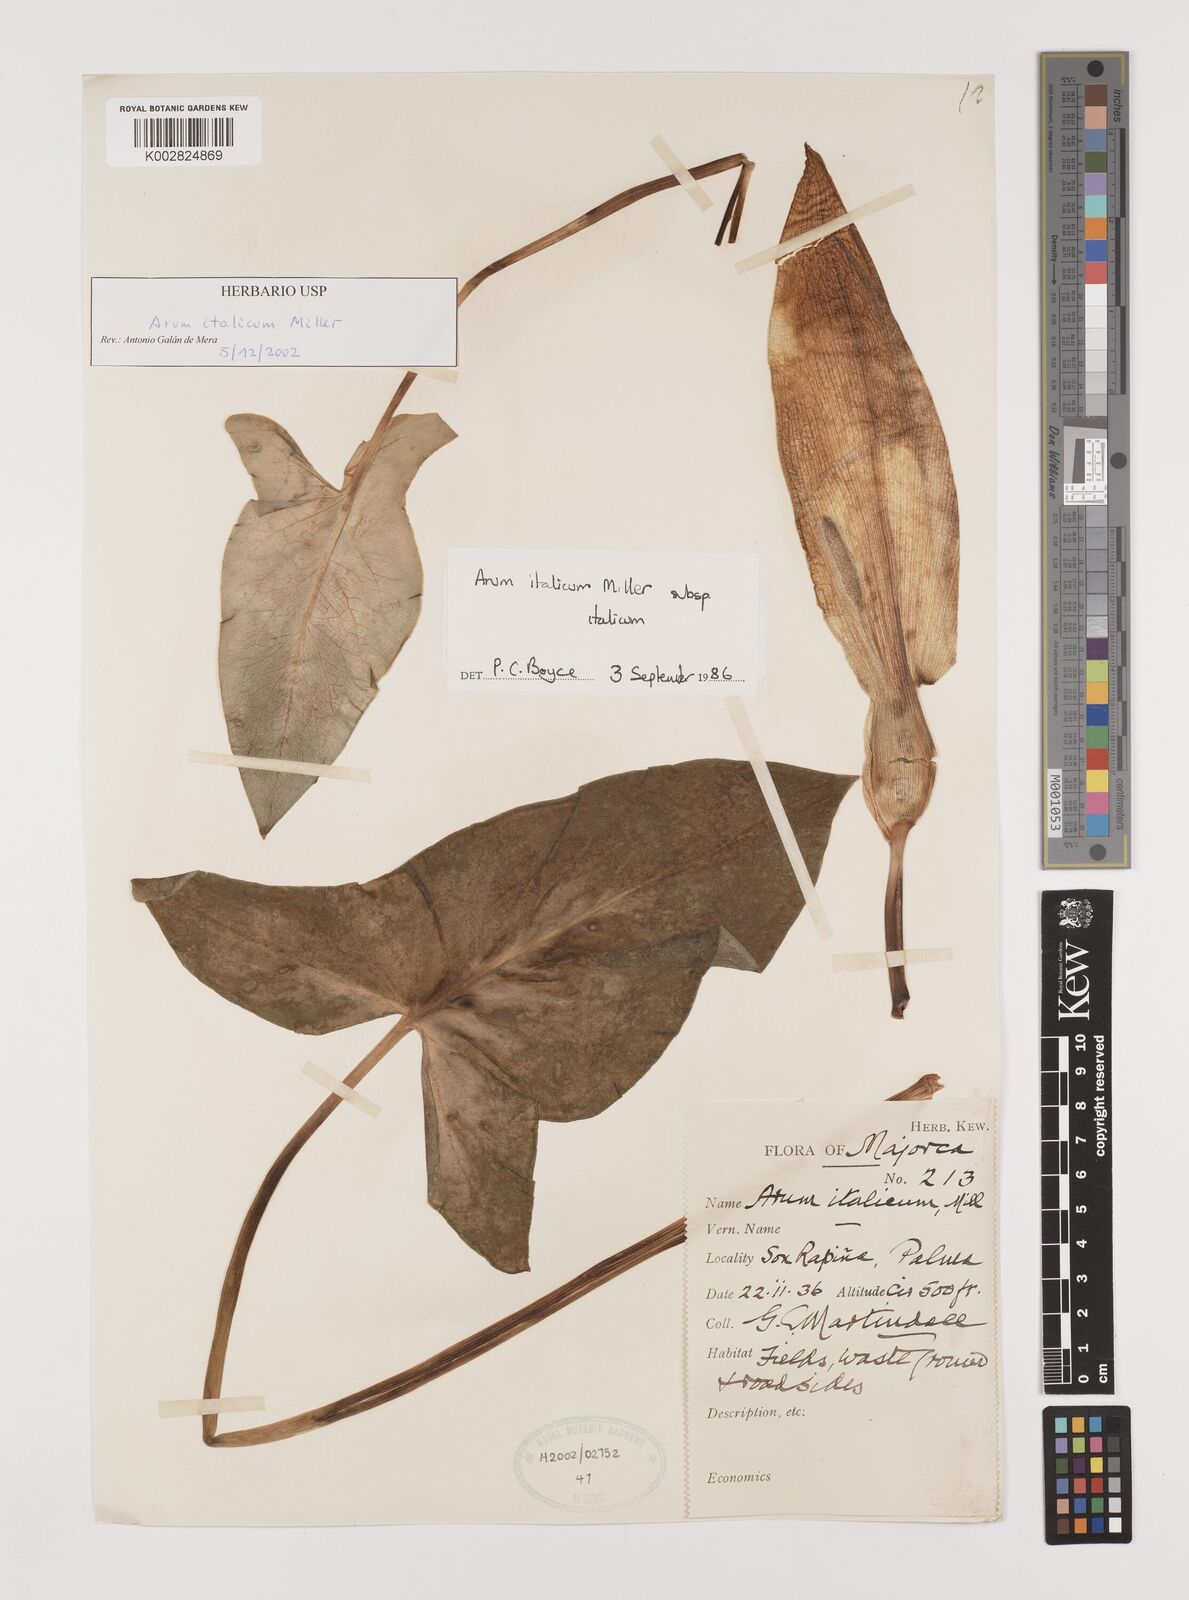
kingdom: Plantae
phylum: Tracheophyta
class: Liliopsida
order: Alismatales
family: Araceae
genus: Arum
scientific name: Arum italicum
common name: Italian lords-and-ladies
